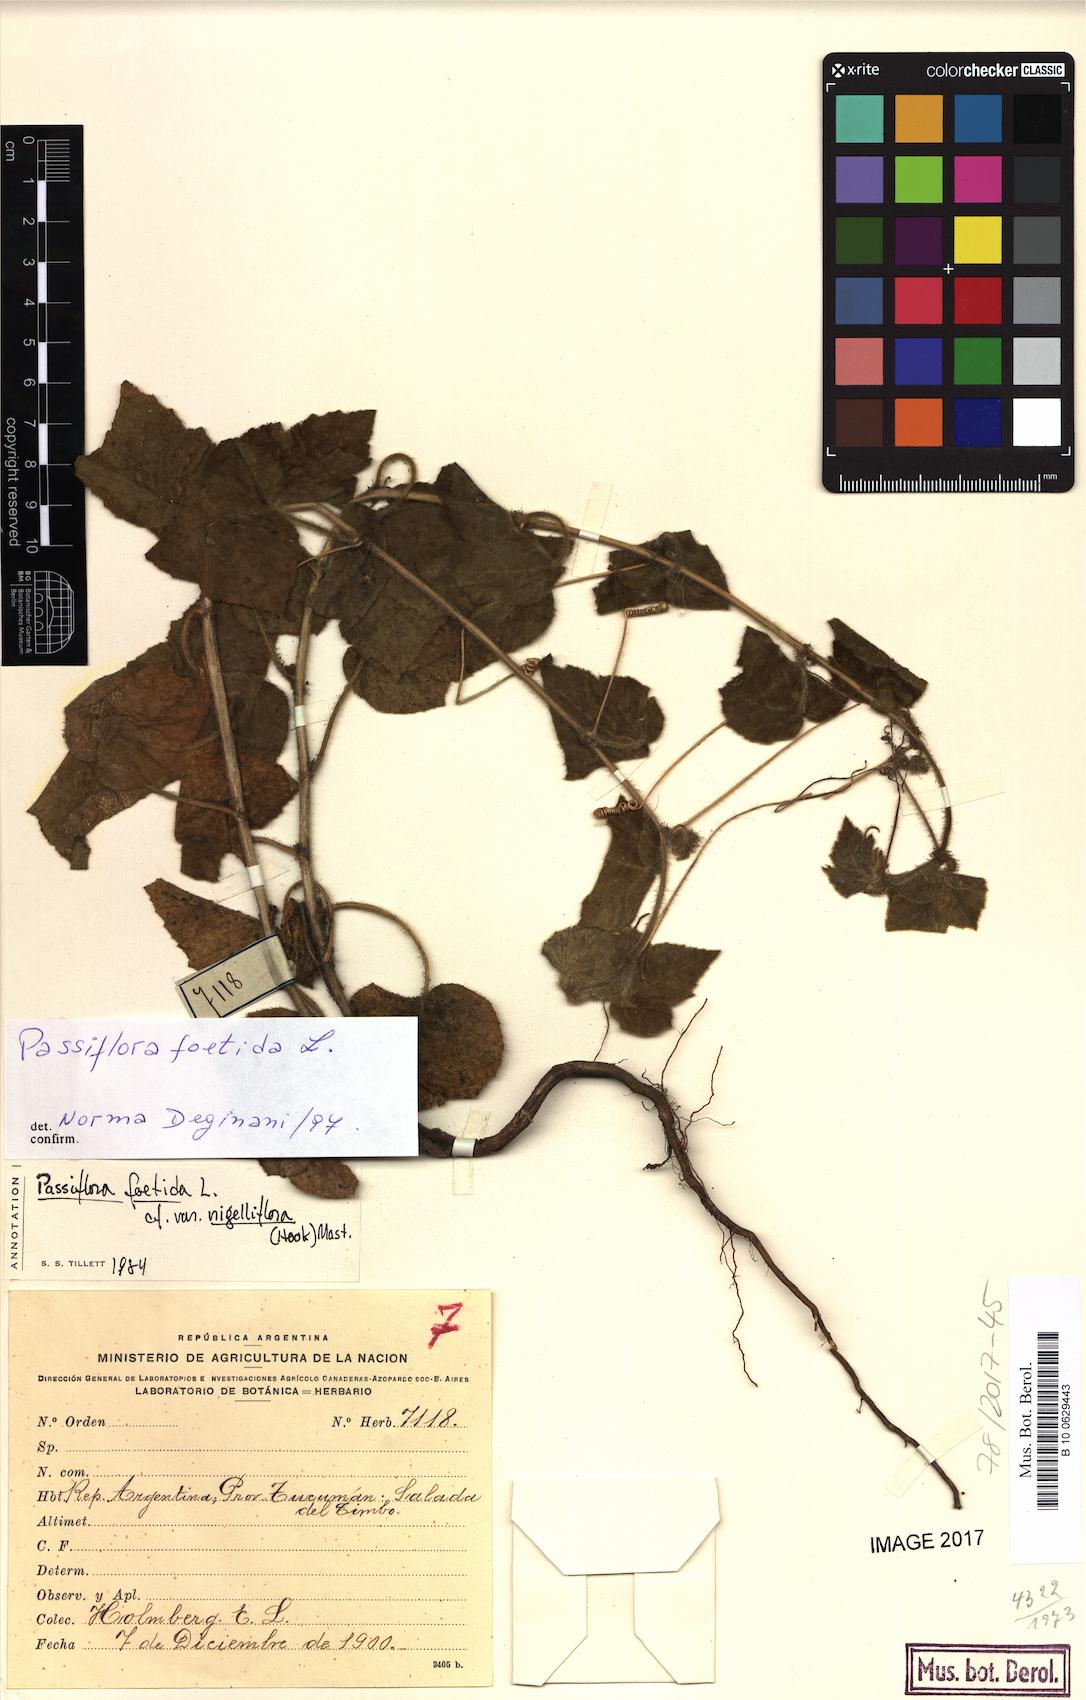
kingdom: Plantae
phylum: Tracheophyta
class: Magnoliopsida
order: Malpighiales
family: Passifloraceae
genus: Passiflora
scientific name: Passiflora foetida
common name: Fetid passionflower
